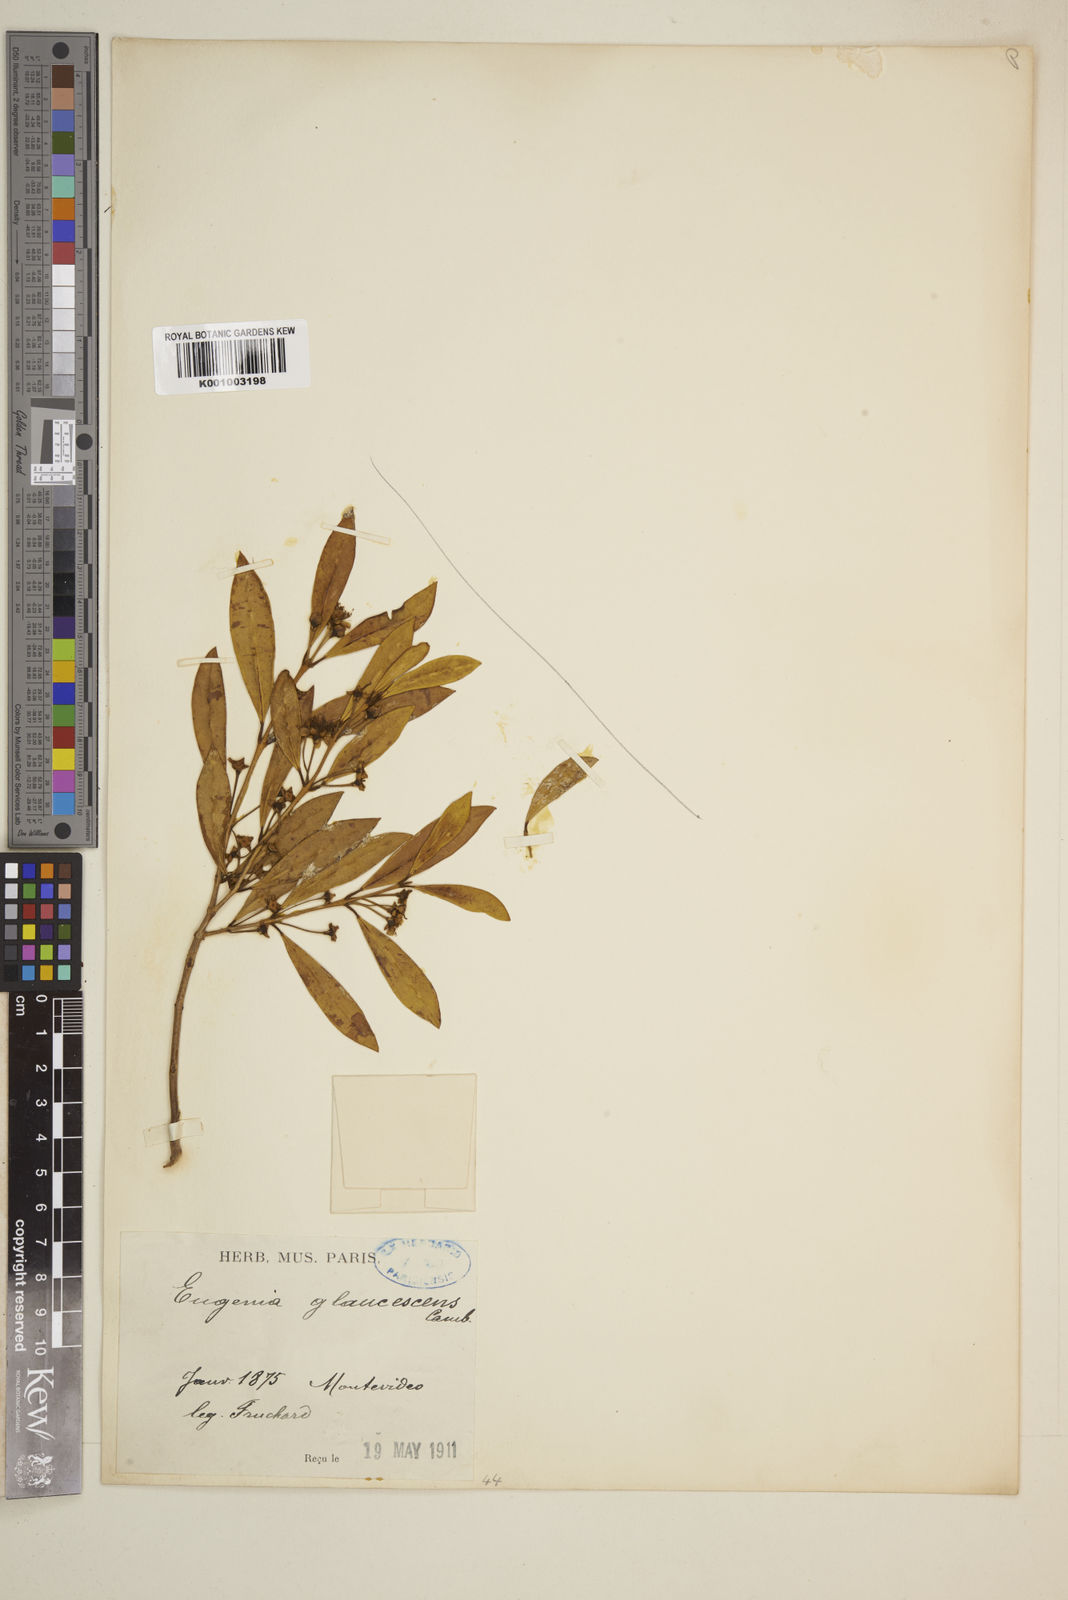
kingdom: Plantae
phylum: Tracheophyta
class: Magnoliopsida
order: Myrtales
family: Myrtaceae
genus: Myrceugenia
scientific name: Myrceugenia glaucescens
